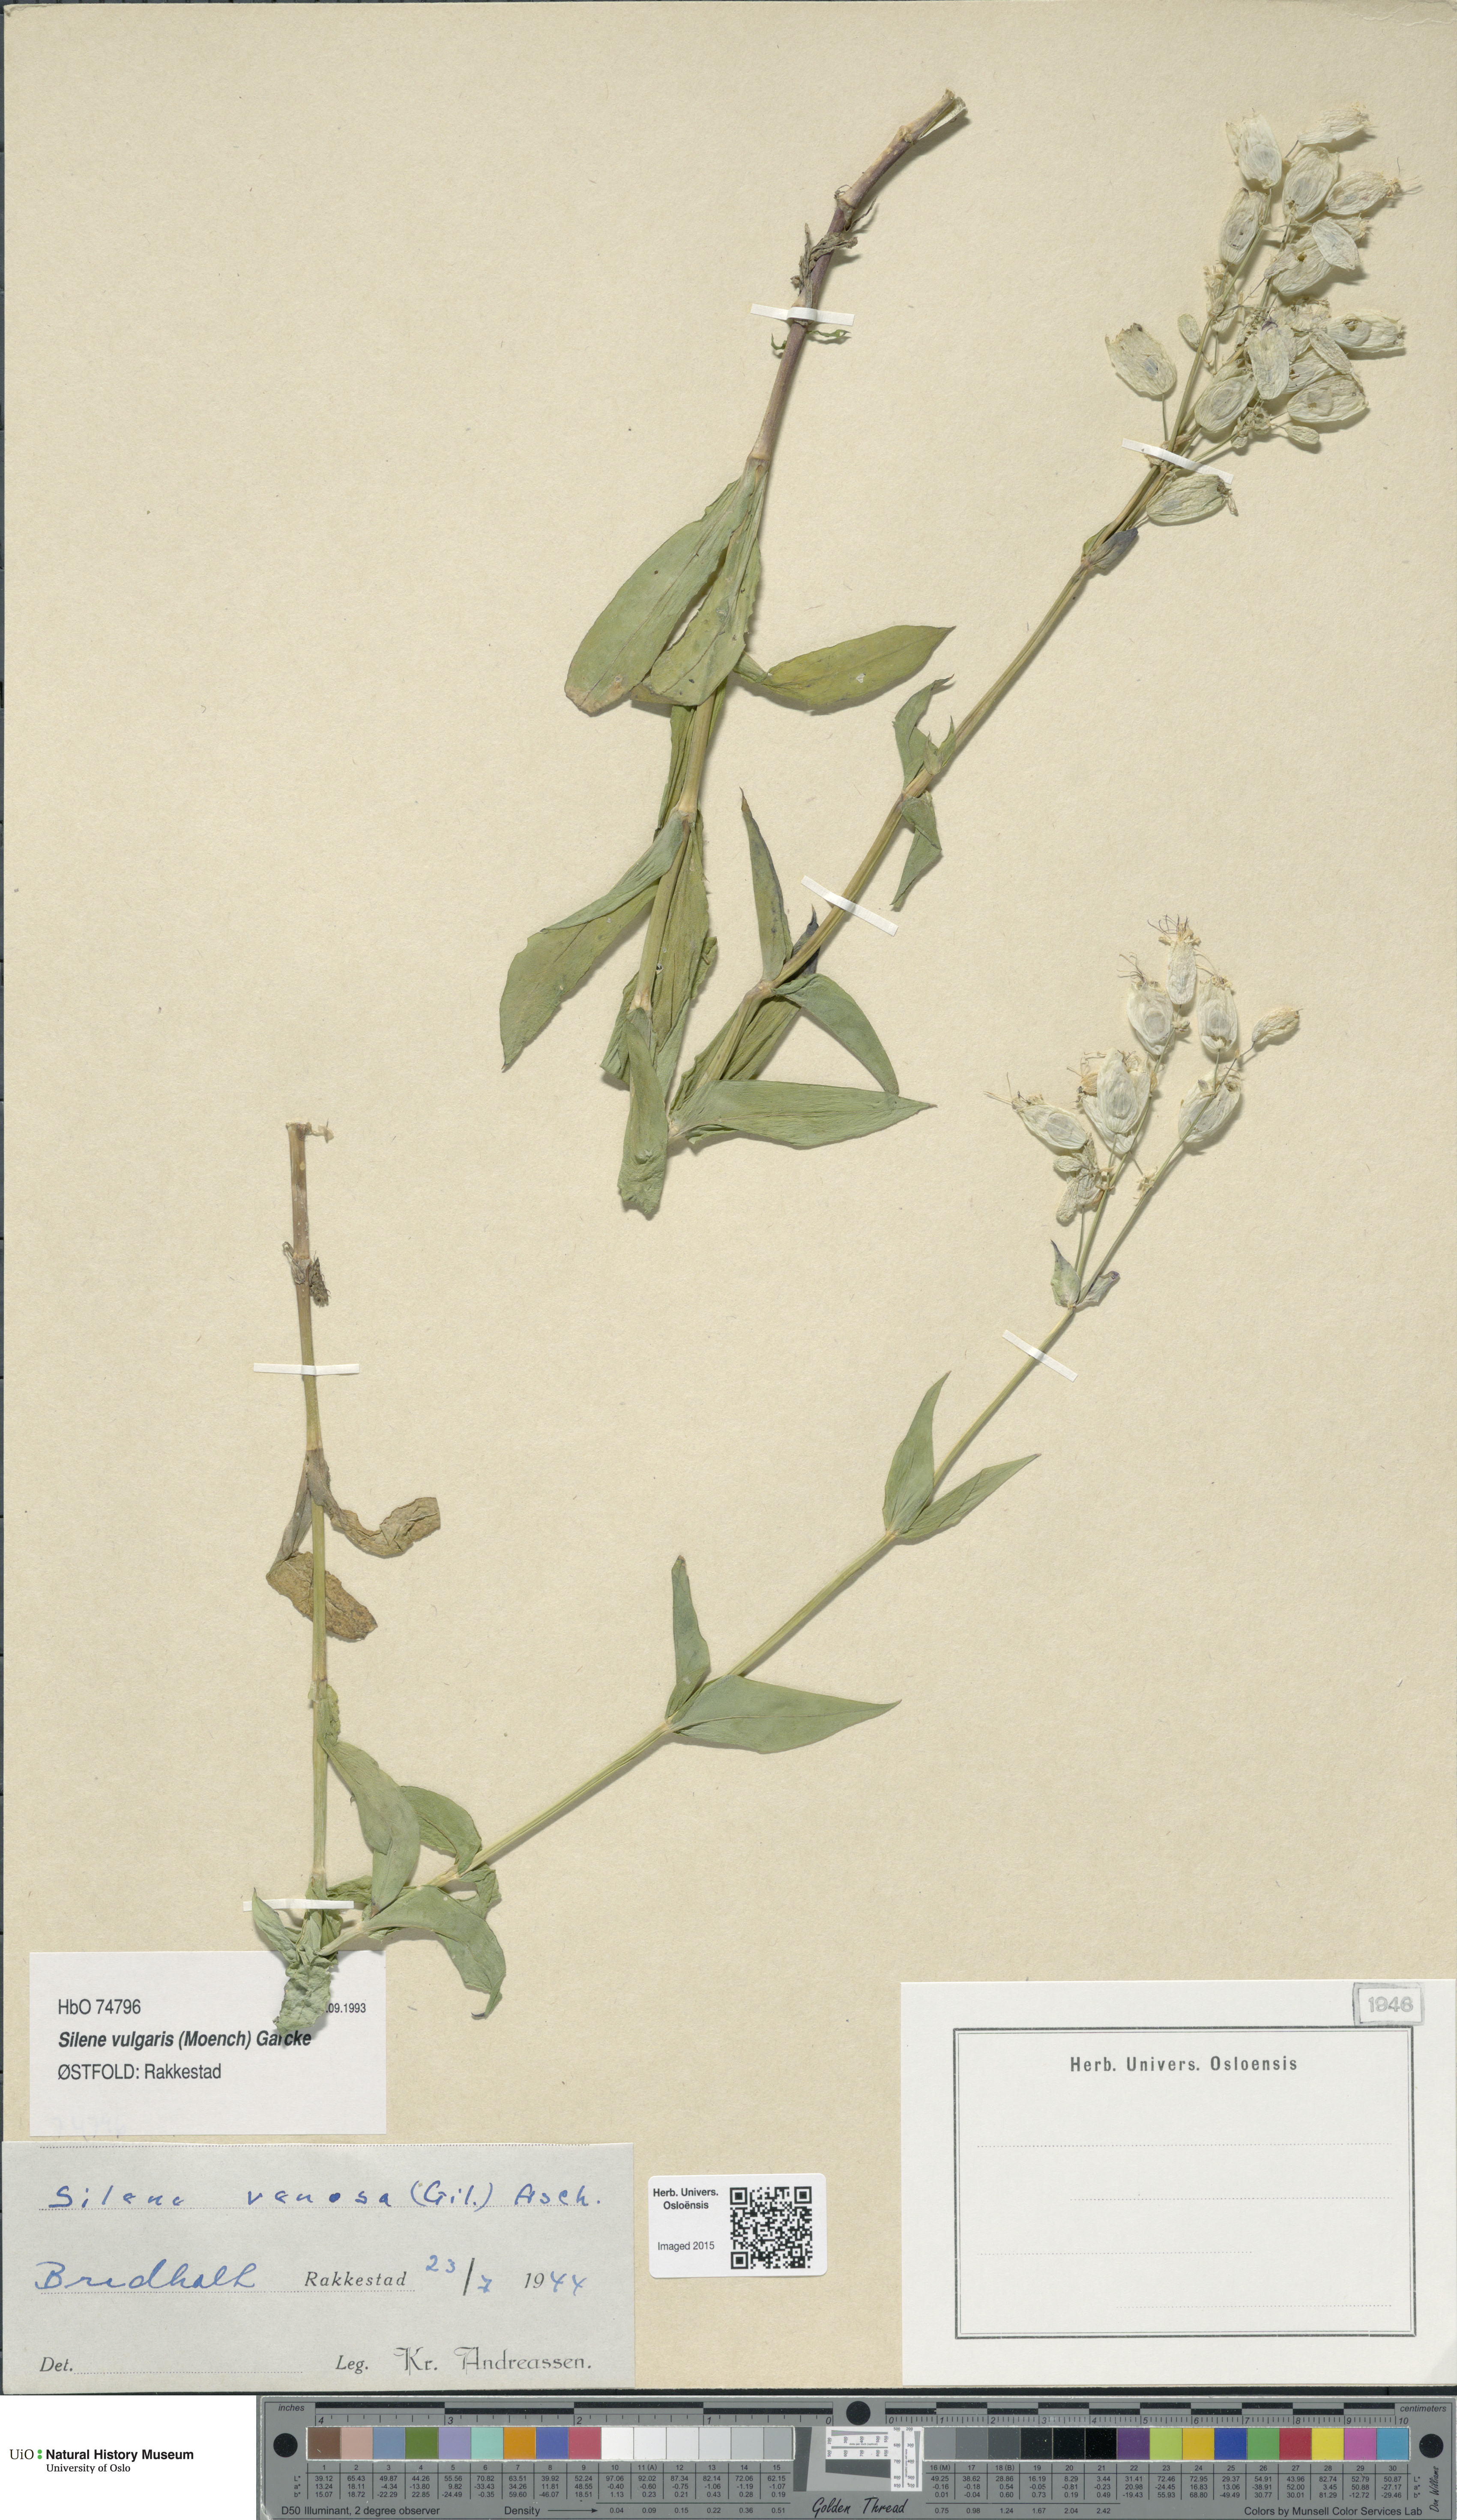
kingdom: Plantae
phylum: Tracheophyta
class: Magnoliopsida
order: Caryophyllales
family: Caryophyllaceae
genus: Silene
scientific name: Silene vulgaris
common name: Bladder campion
